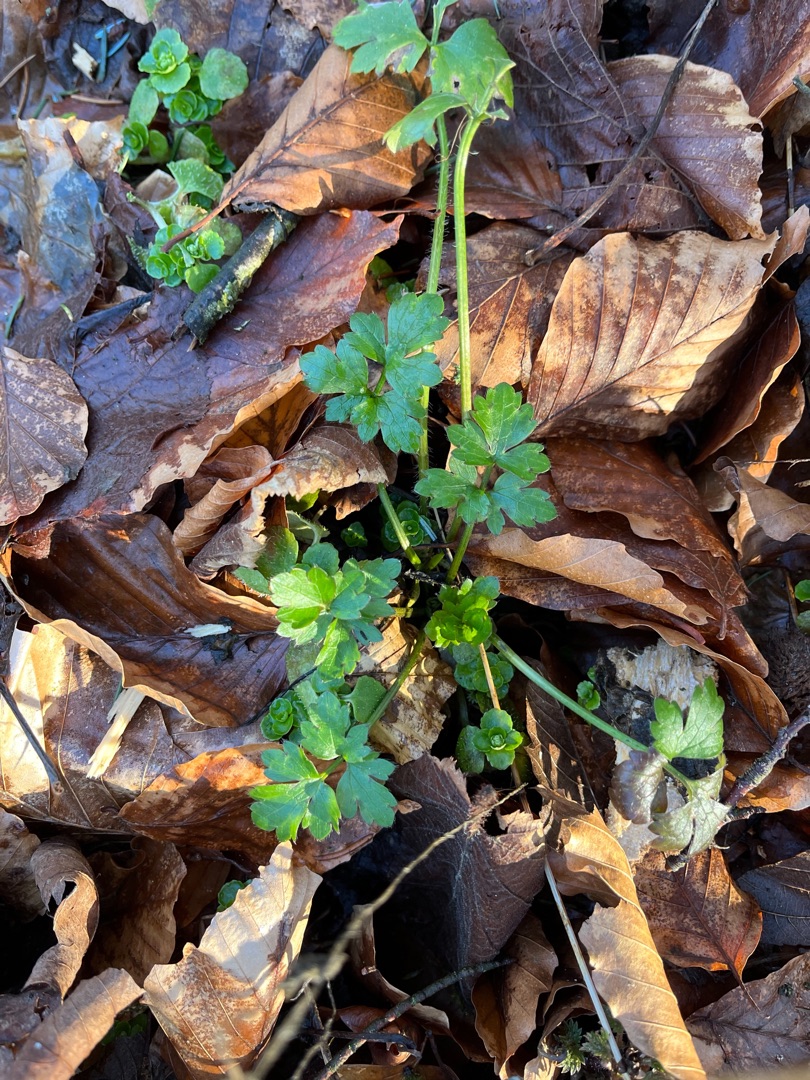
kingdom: Plantae
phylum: Tracheophyta
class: Magnoliopsida
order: Ranunculales
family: Ranunculaceae
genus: Ranunculus
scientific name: Ranunculus repens
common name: Lav ranunkel
